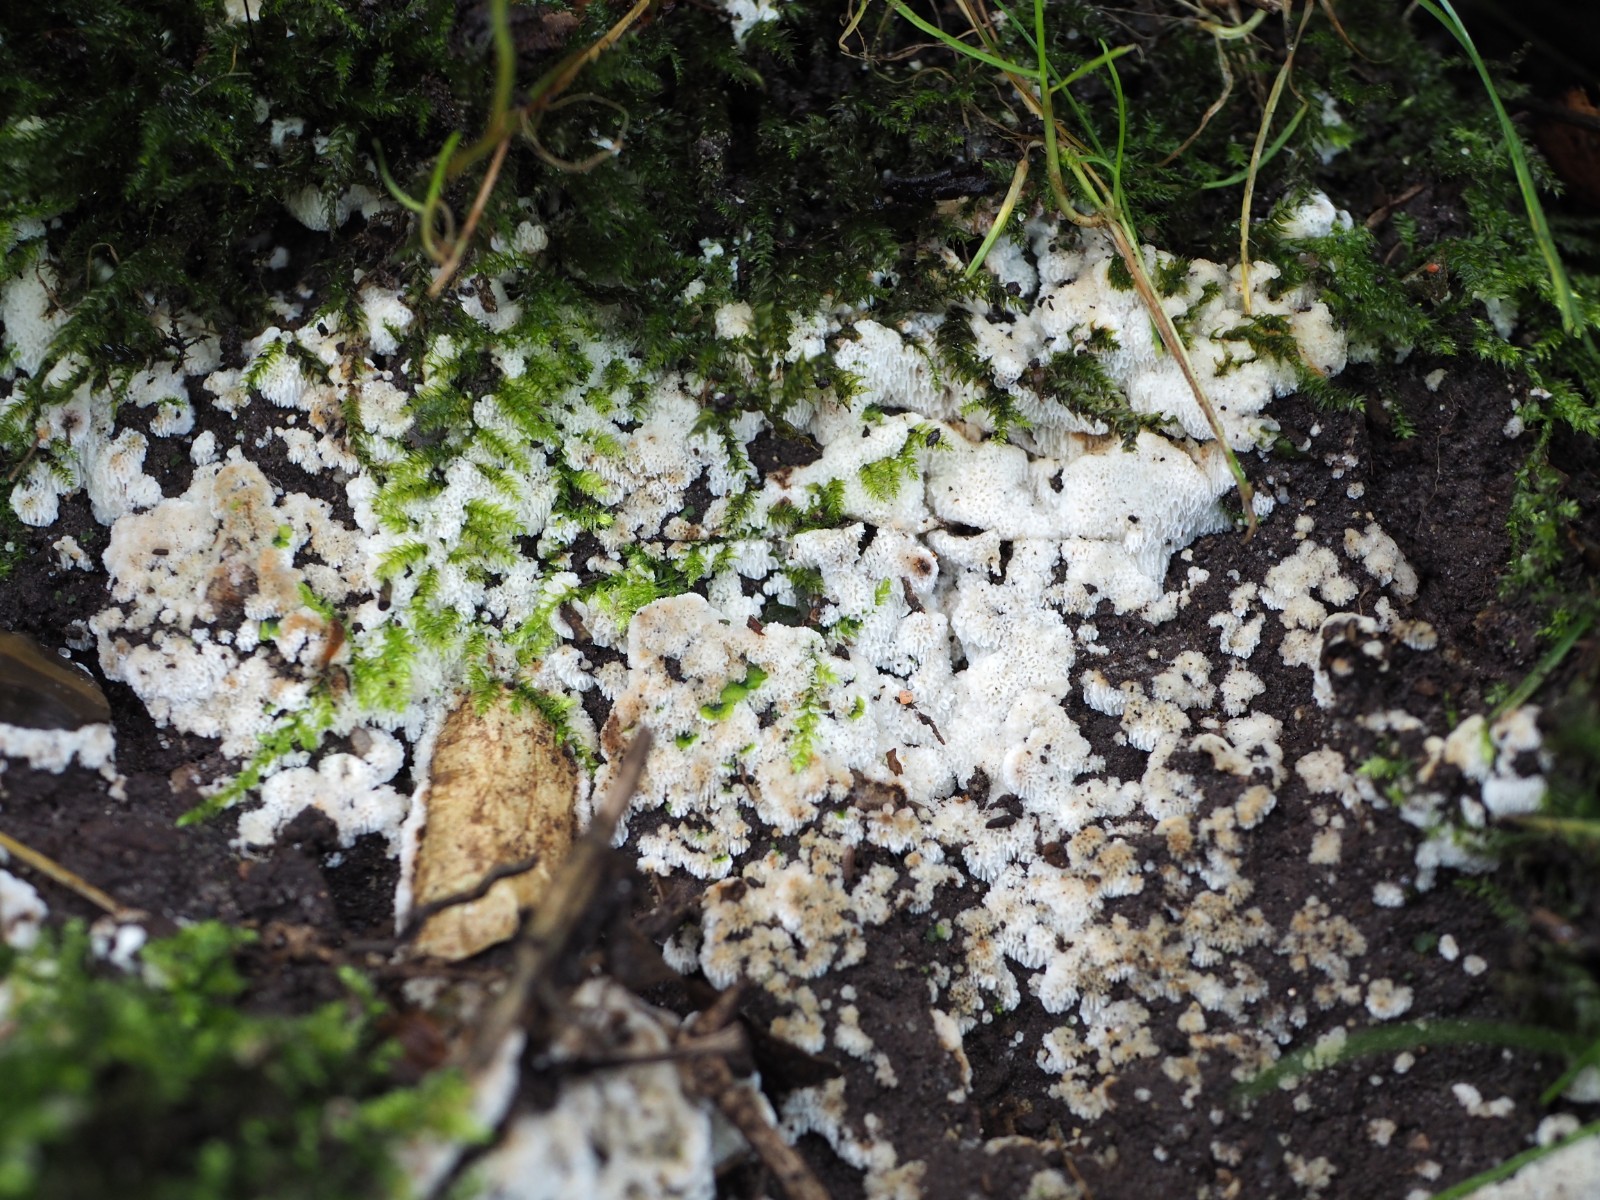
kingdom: Fungi
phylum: Basidiomycota
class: Agaricomycetes
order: Polyporales
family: Meripilaceae
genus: Rigidoporus
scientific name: Rigidoporus sanguinolentus
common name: blod-skorpeporesvamp
